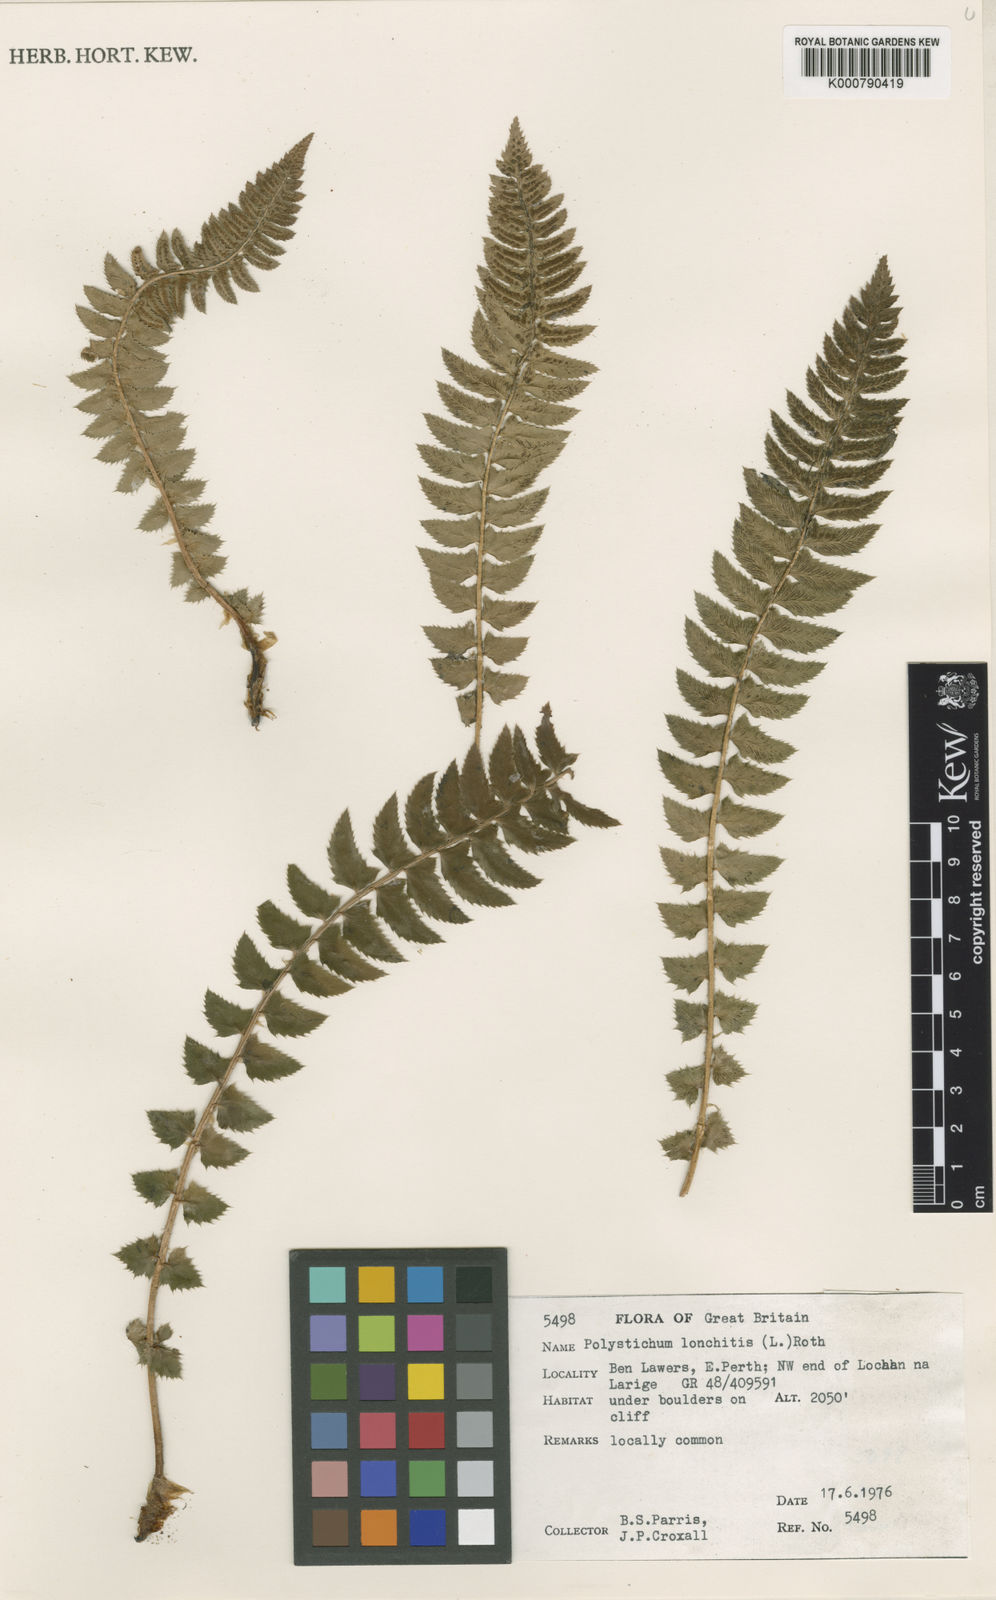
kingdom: Plantae
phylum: Tracheophyta
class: Polypodiopsida
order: Polypodiales
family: Dryopteridaceae
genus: Polystichum
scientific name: Polystichum lonchitis
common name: Holly fern
